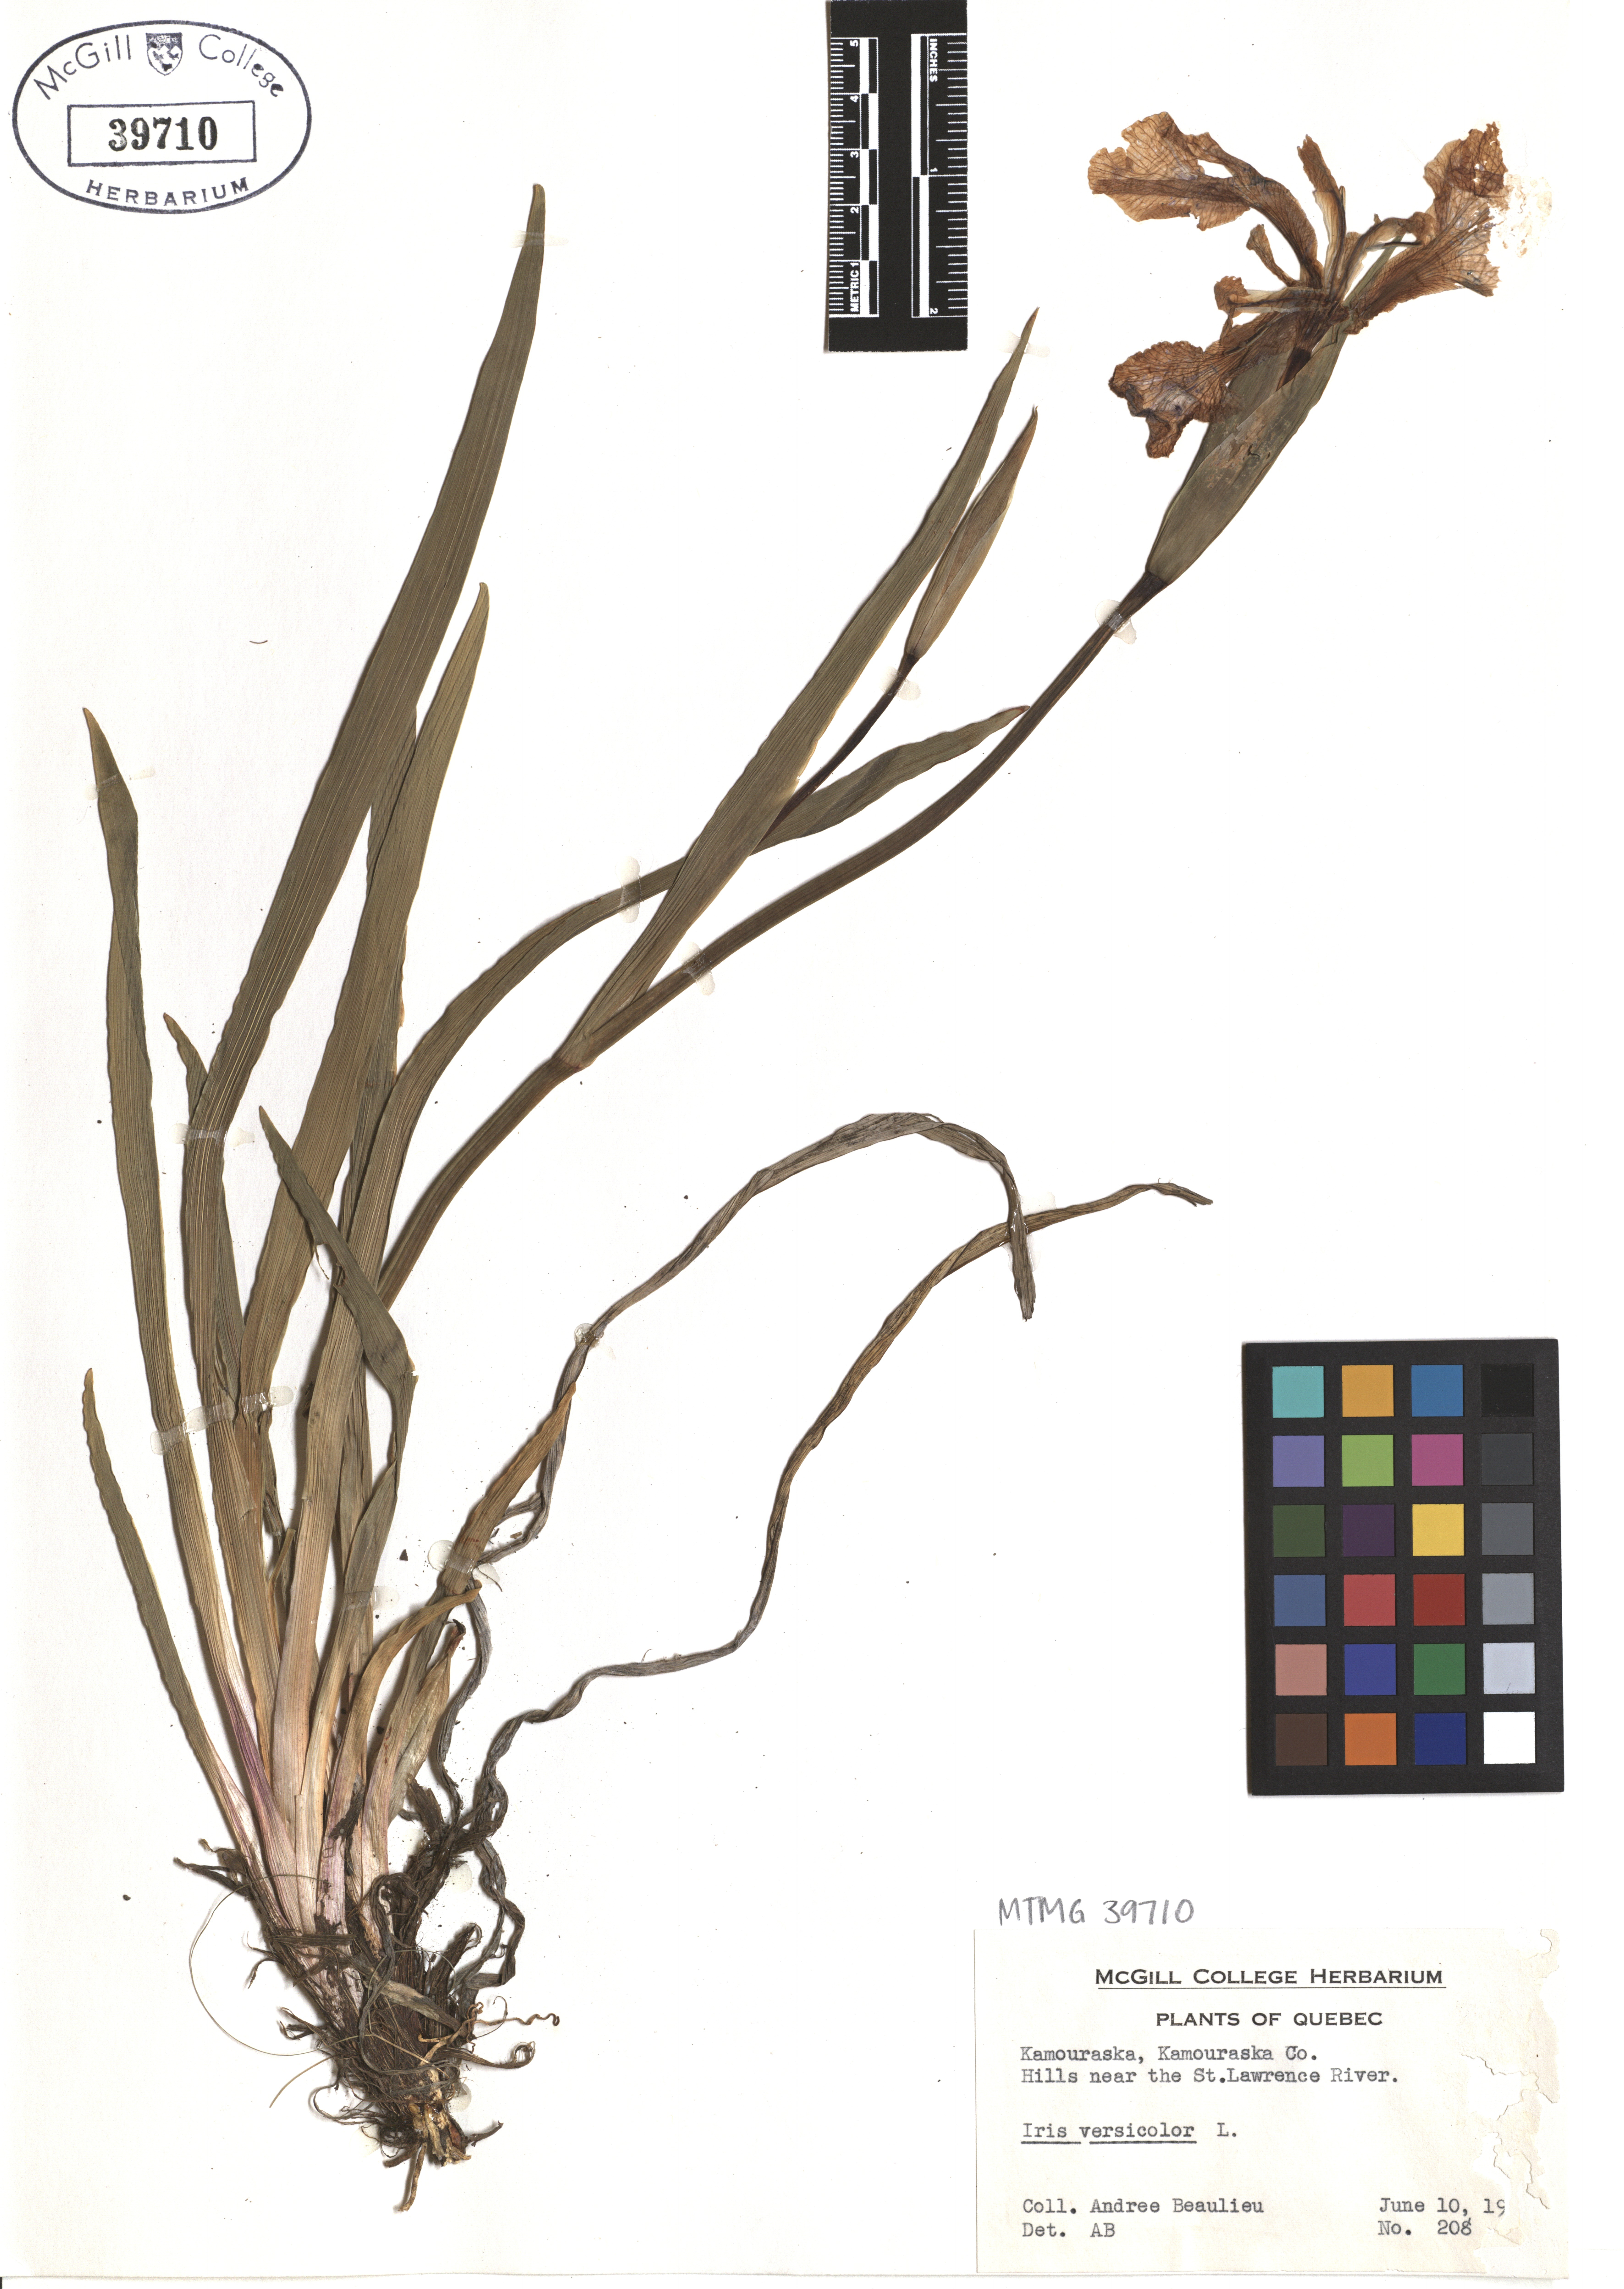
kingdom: Plantae
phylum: Tracheophyta
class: Liliopsida
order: Asparagales
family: Iridaceae
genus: Iris
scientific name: Iris versicolor
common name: Purple iris
